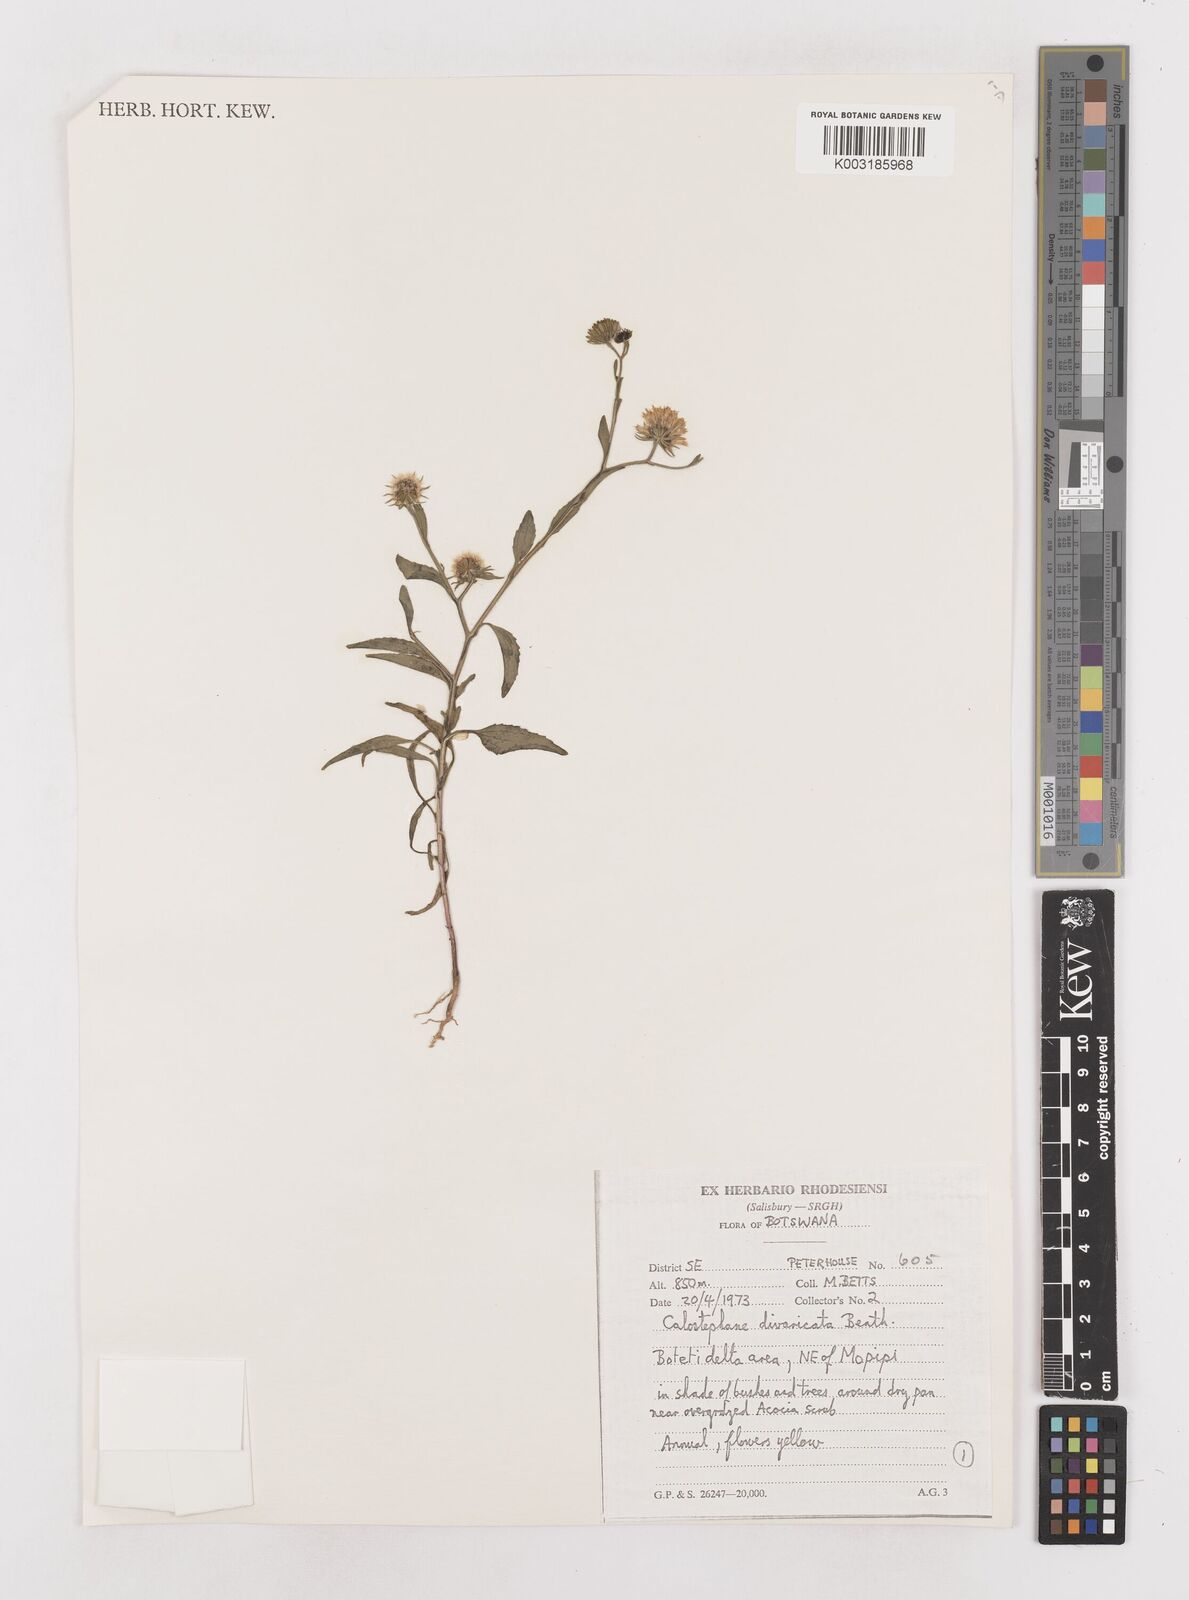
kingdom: Plantae
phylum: Tracheophyta
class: Magnoliopsida
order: Asterales
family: Asteraceae
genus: Calostephane
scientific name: Calostephane divaricata
